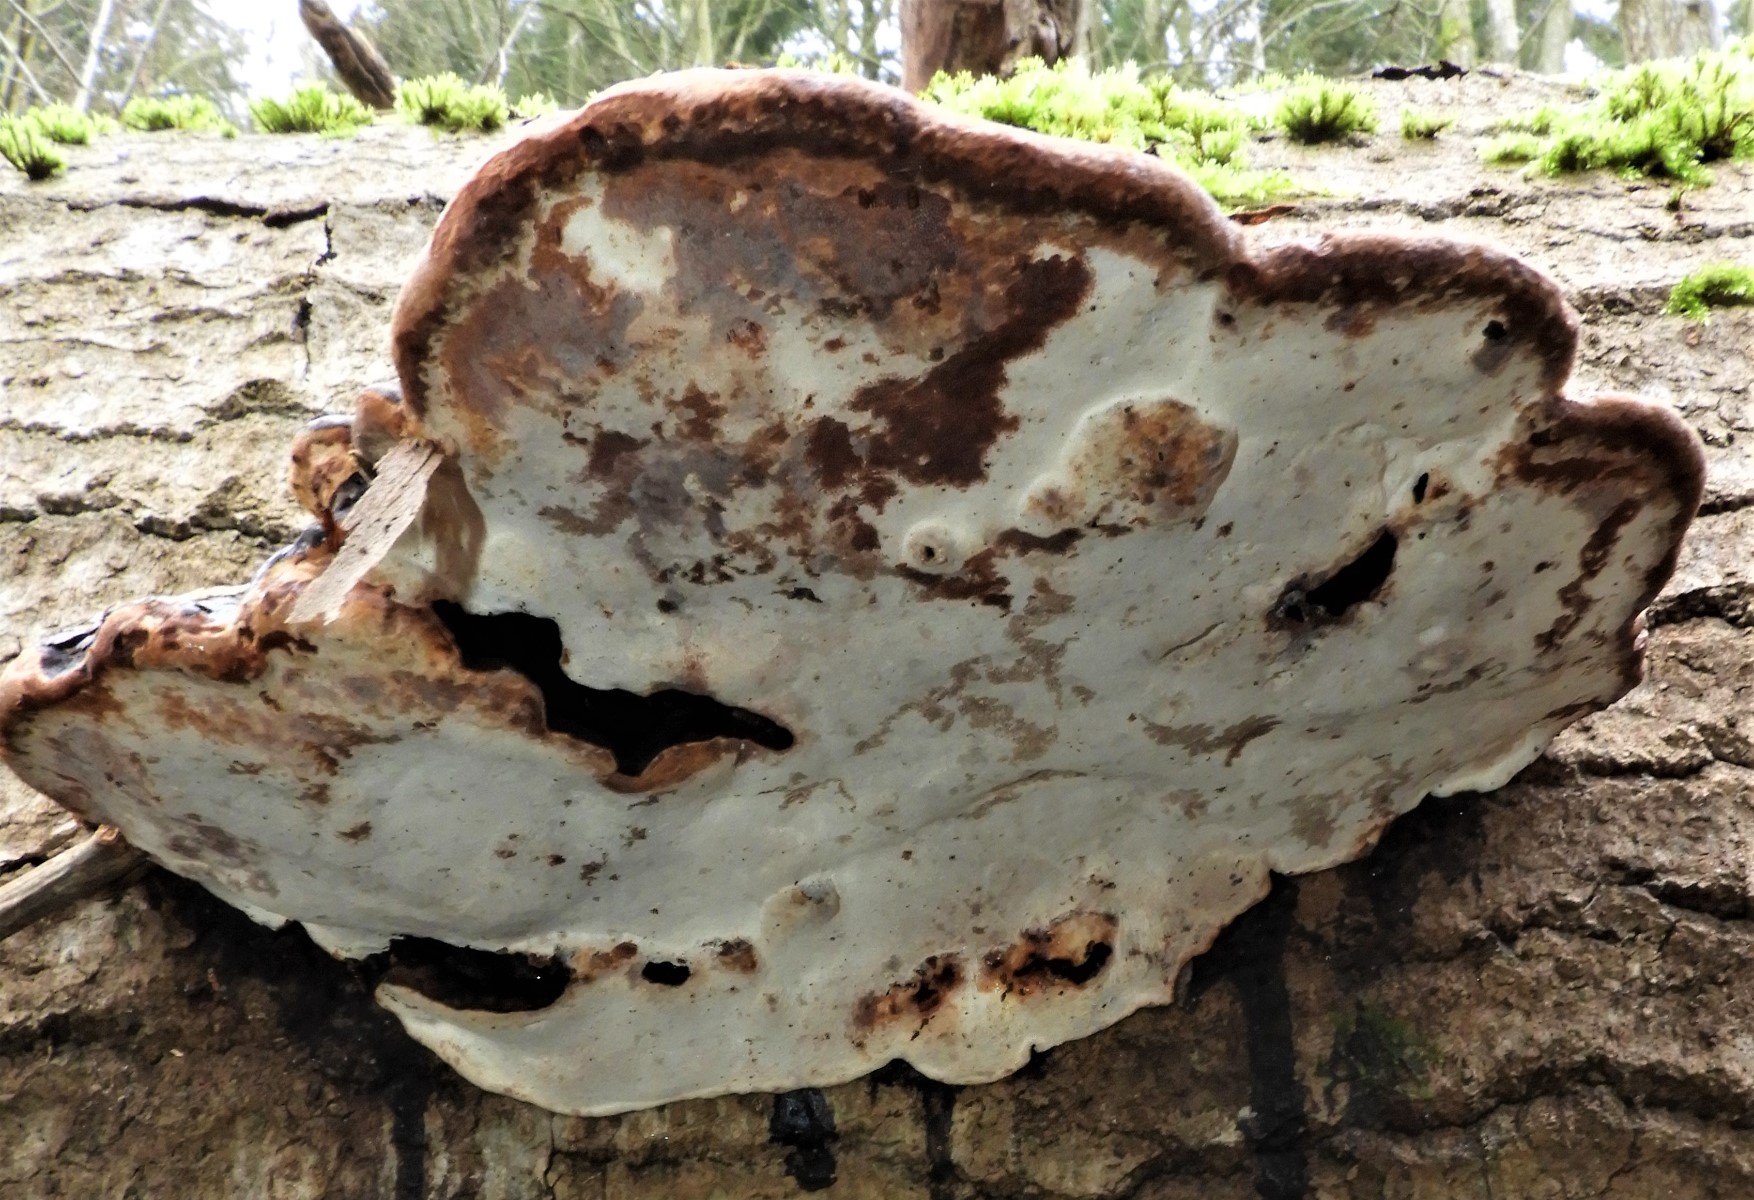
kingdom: Fungi
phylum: Basidiomycota
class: Agaricomycetes
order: Polyporales
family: Polyporaceae
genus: Ganoderma
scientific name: Ganoderma applanatum
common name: flad lakporesvamp
